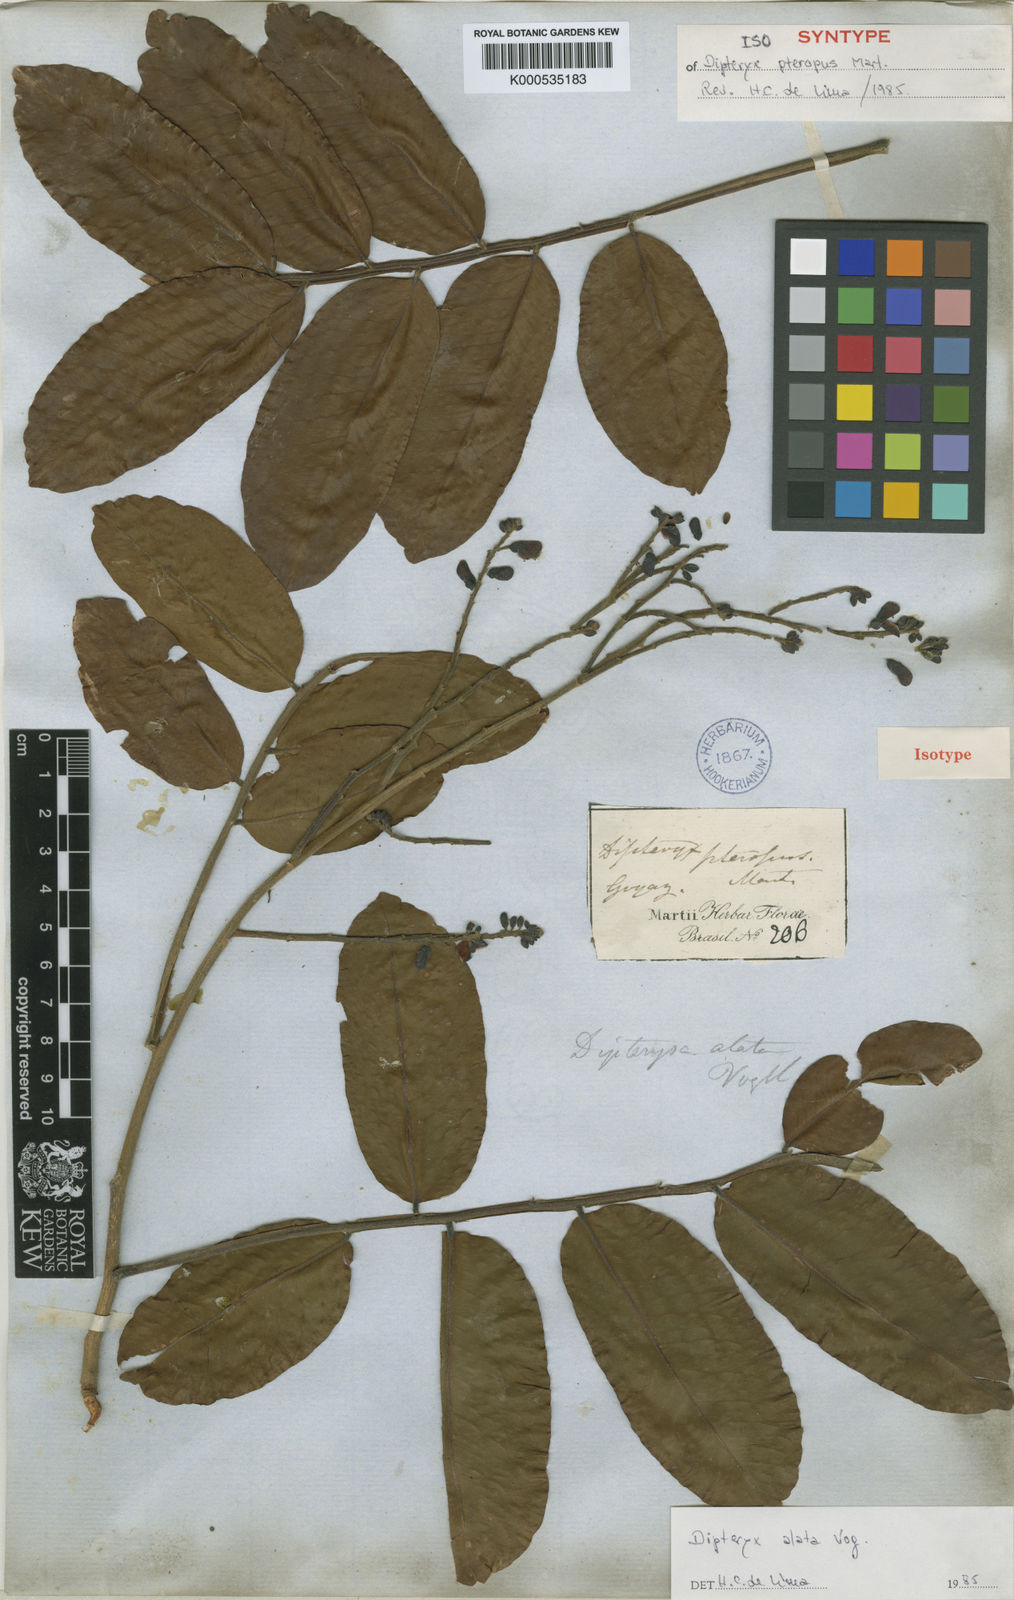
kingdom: Plantae
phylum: Tracheophyta
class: Magnoliopsida
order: Fabales
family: Fabaceae
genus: Dipteryx
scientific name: Dipteryx alata
